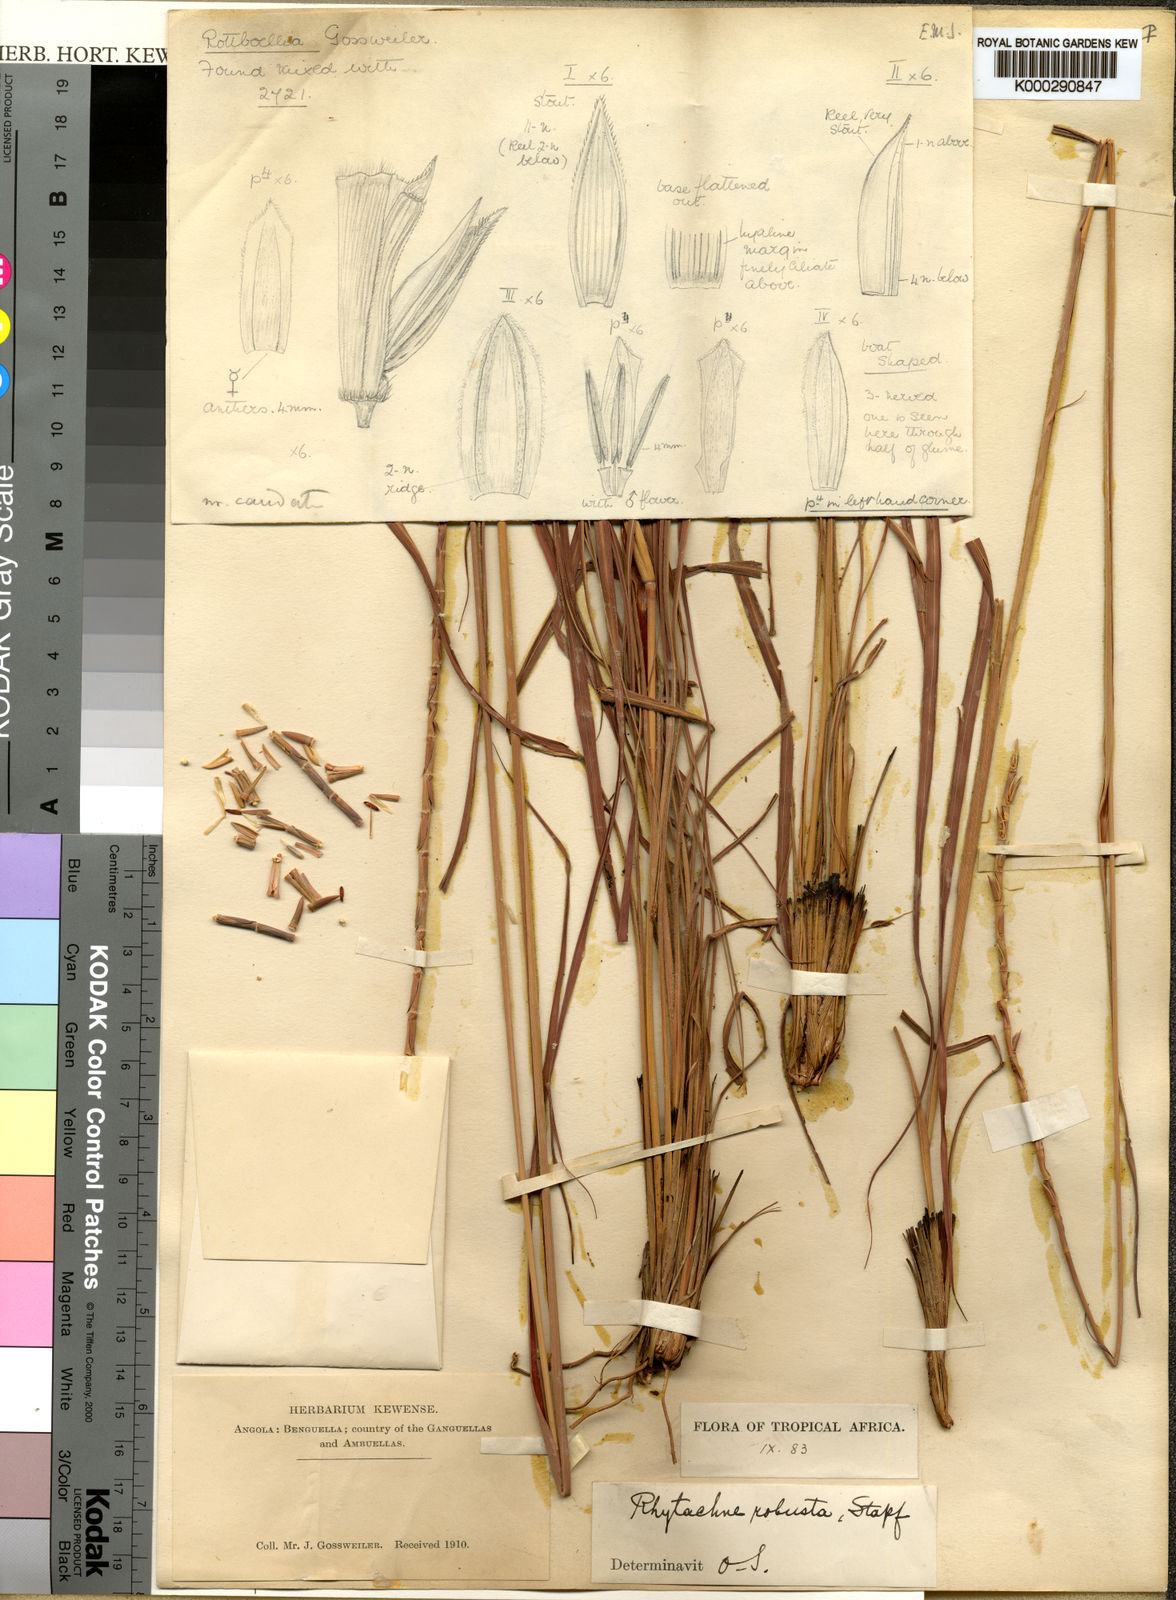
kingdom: Plantae
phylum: Tracheophyta
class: Liliopsida
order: Poales
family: Poaceae
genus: Rhytachne
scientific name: Rhytachne robusta
